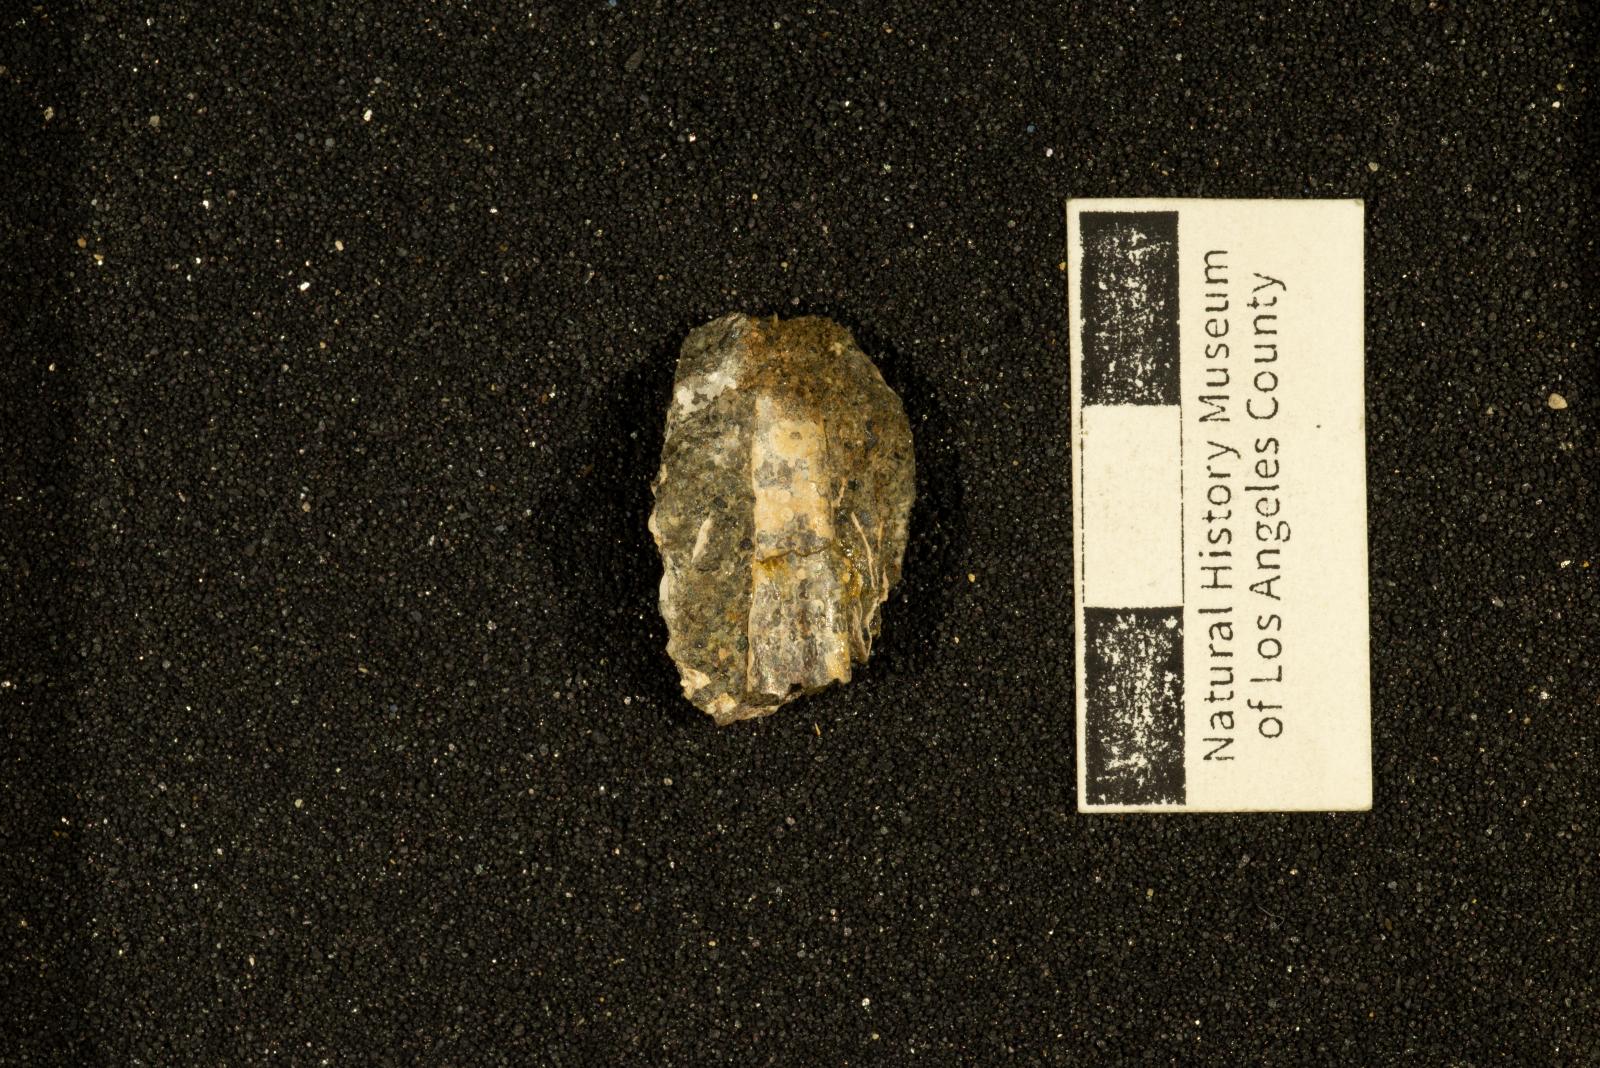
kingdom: Animalia
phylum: Mollusca
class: Cephalopoda
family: Baculitidae
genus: Baculites
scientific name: Baculites capensis
